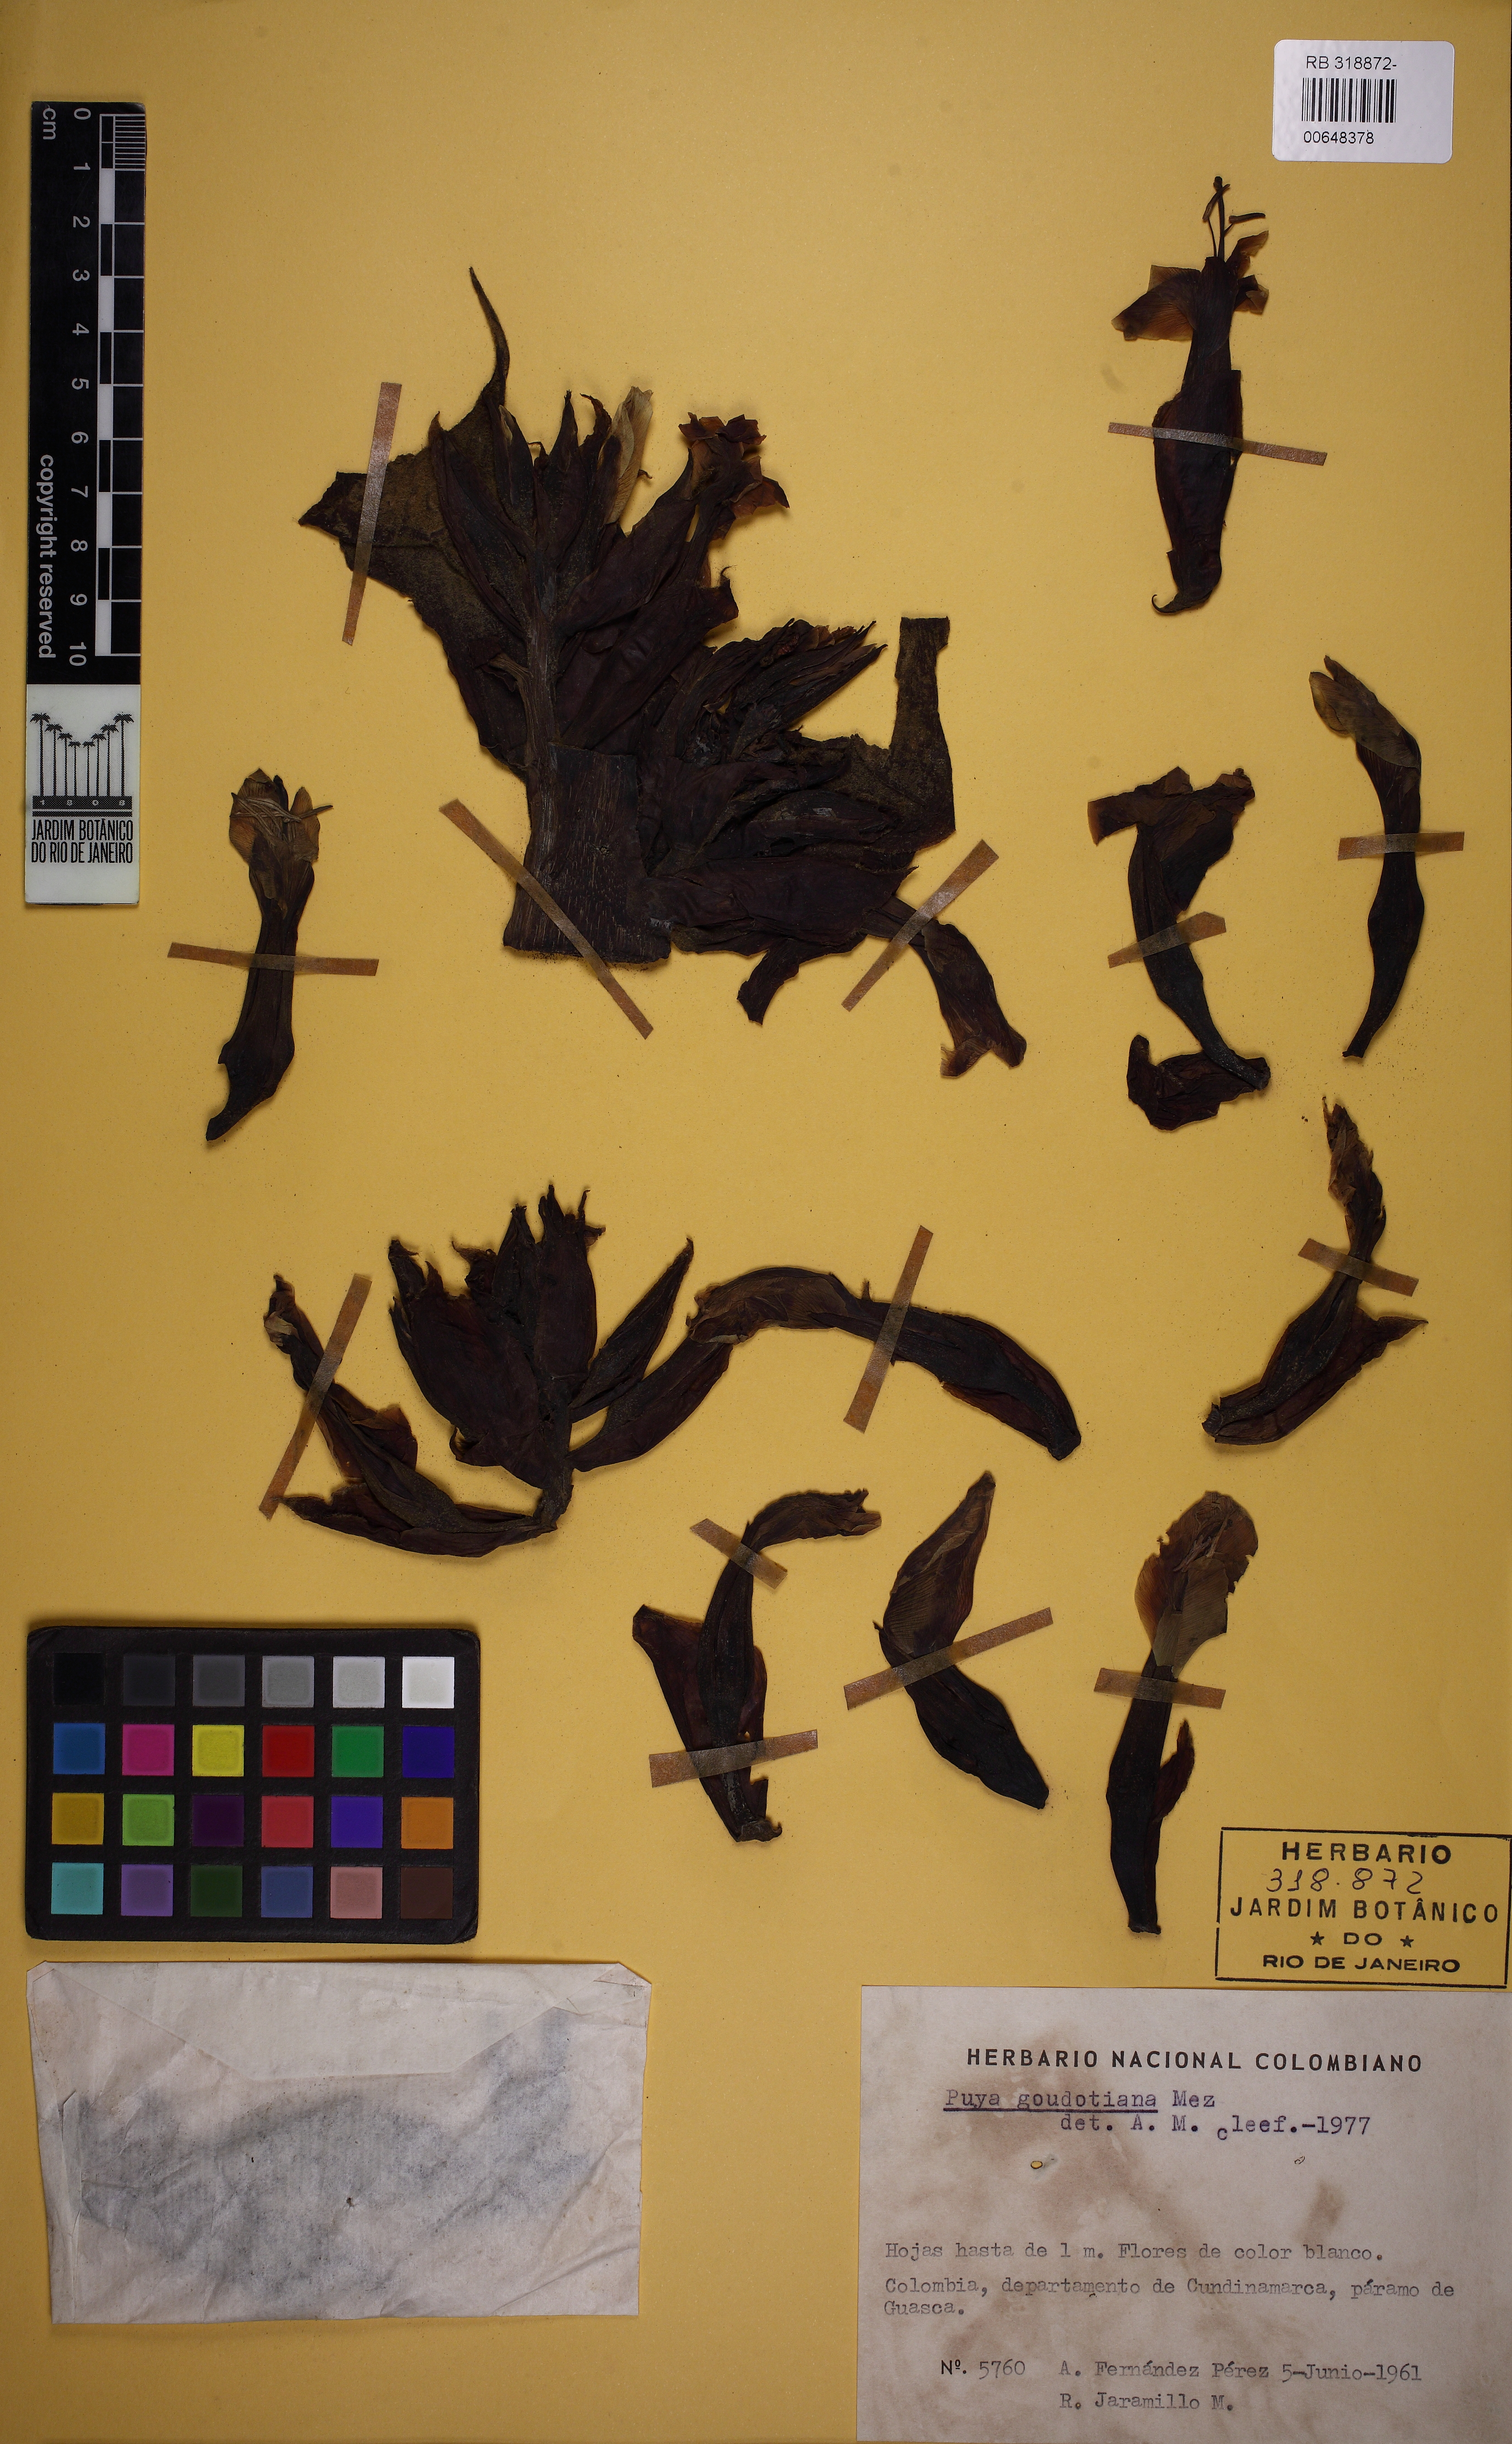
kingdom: Plantae
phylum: Tracheophyta
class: Liliopsida
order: Poales
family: Bromeliaceae
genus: Puya
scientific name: Puya goudotiana
